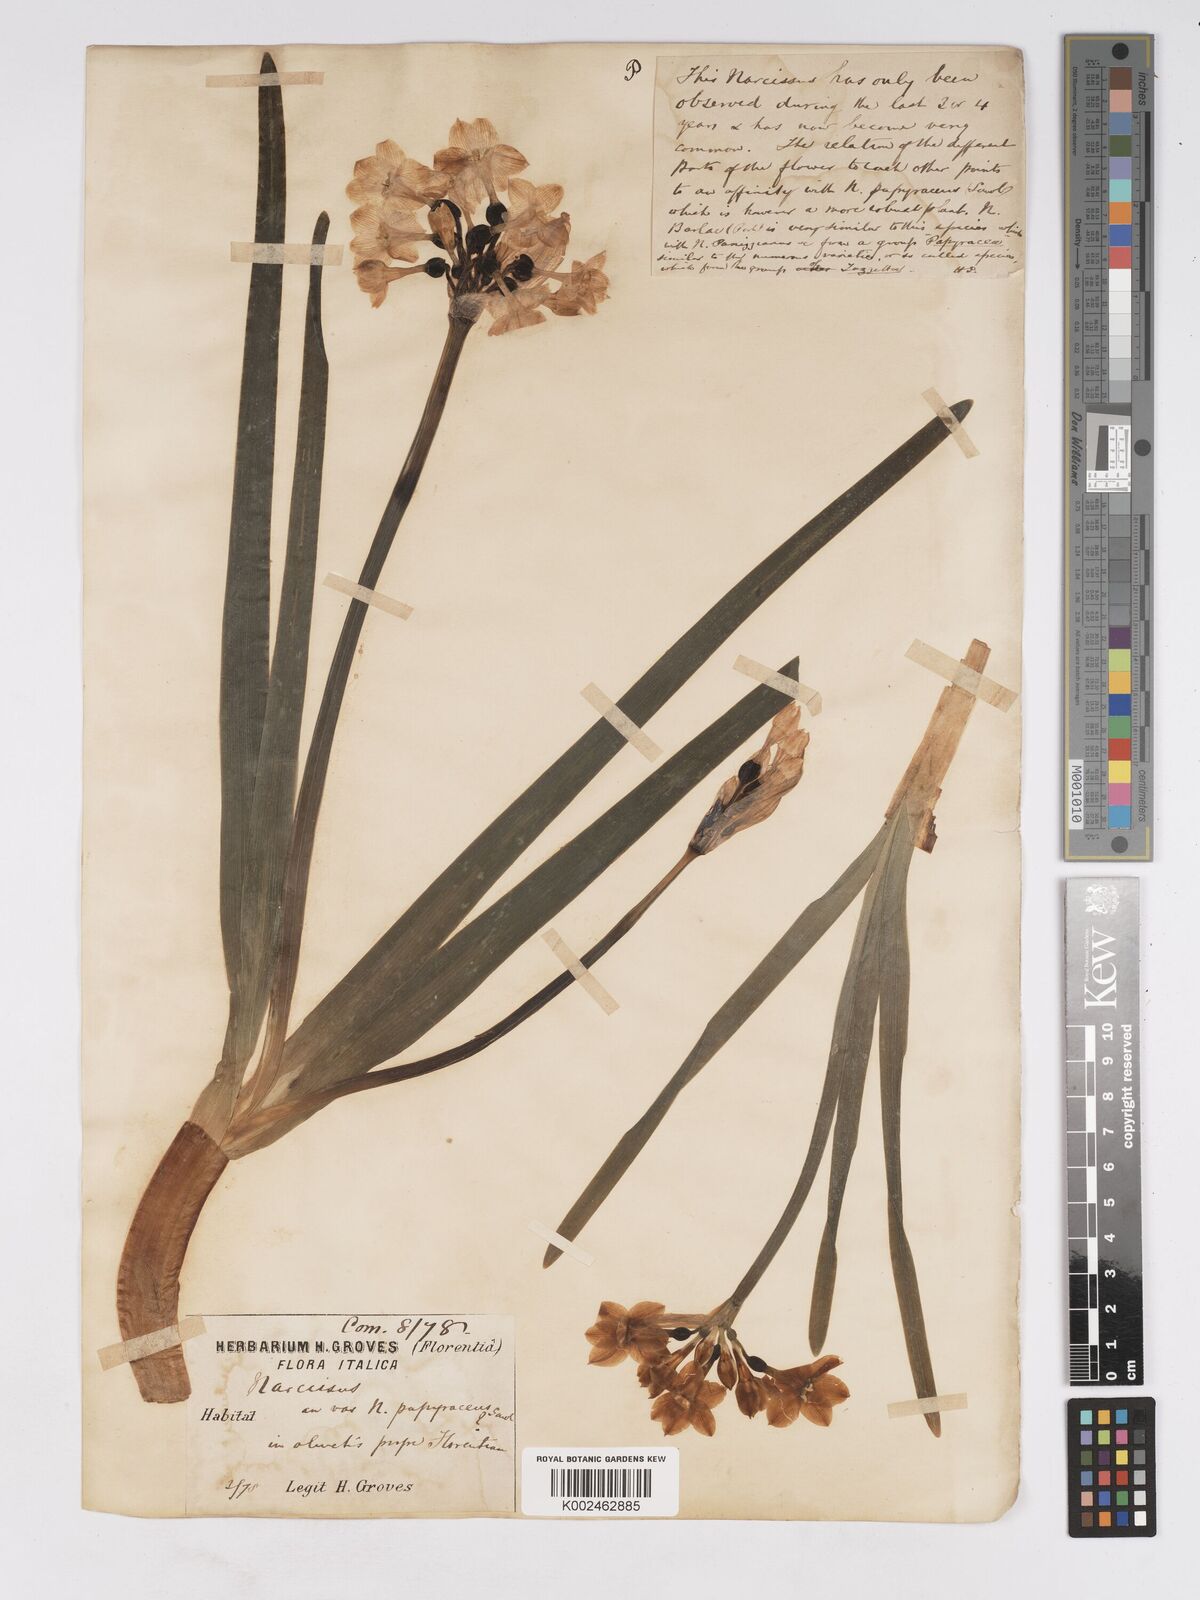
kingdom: Plantae
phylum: Tracheophyta
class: Liliopsida
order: Asparagales
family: Amaryllidaceae
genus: Narcissus
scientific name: Narcissus papyraceus
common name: Paper-white daffodil
